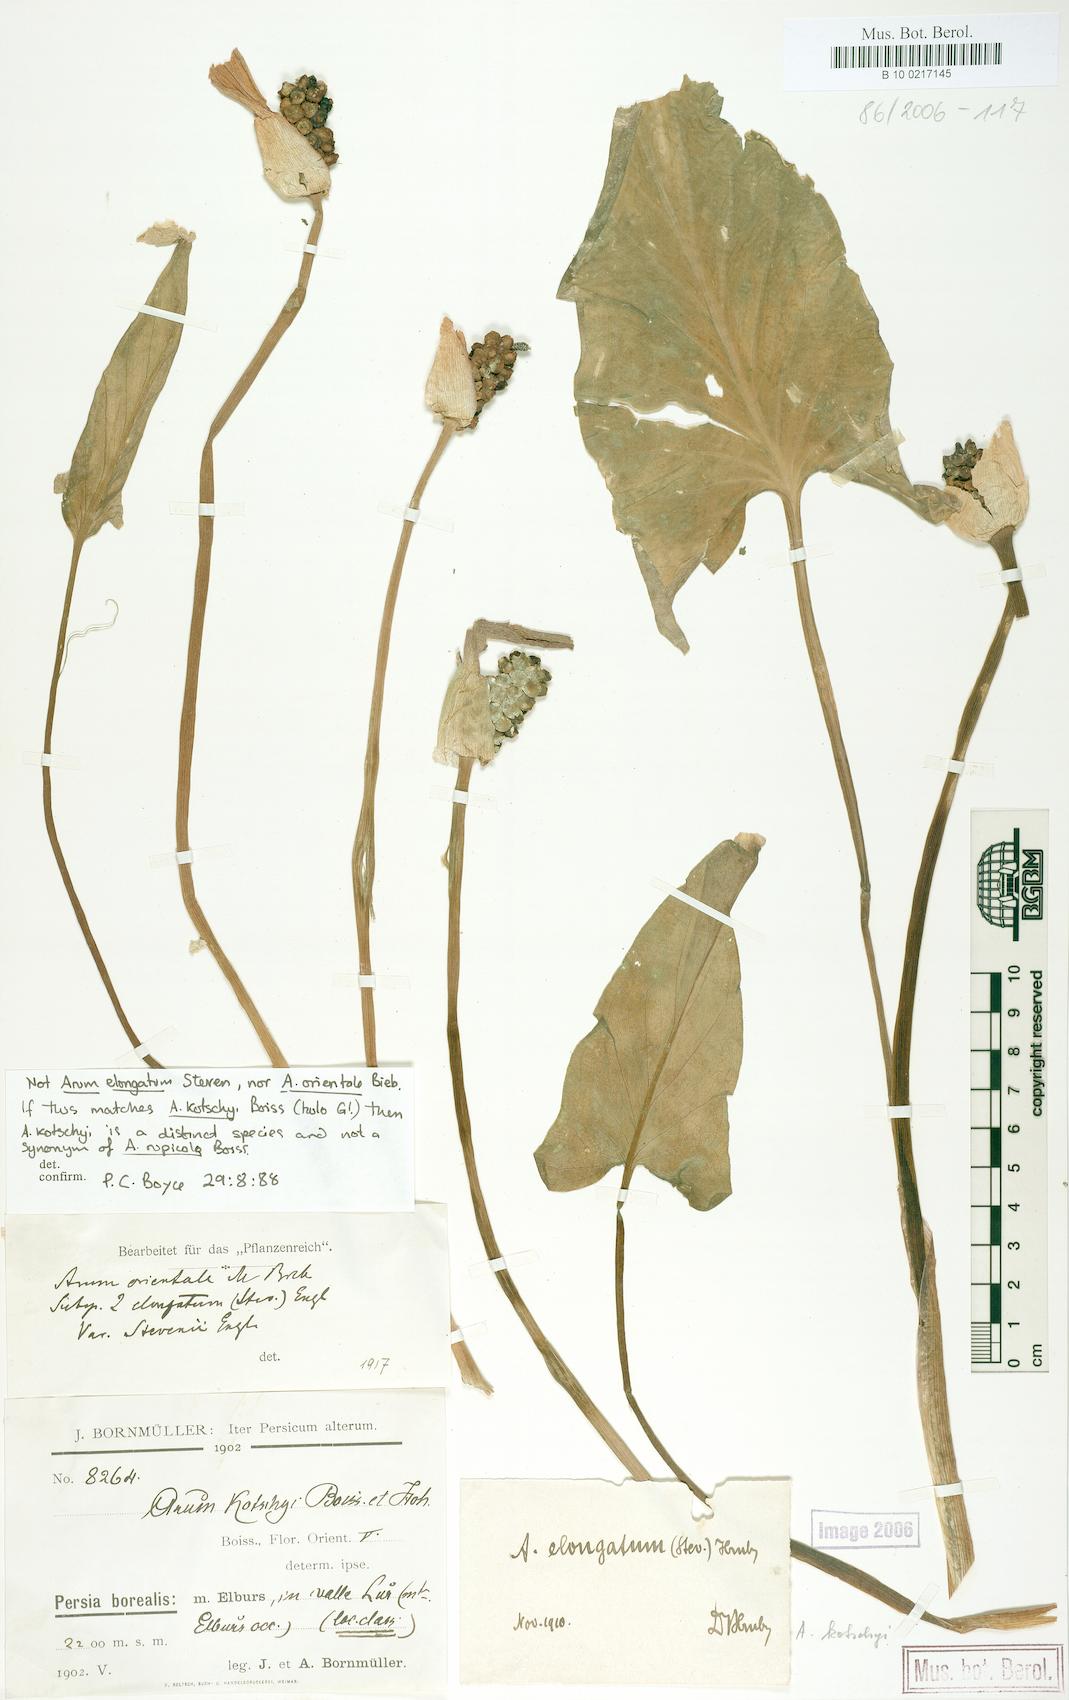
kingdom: Plantae
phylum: Tracheophyta
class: Liliopsida
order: Alismatales
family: Araceae
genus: Arum
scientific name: Arum orientale
